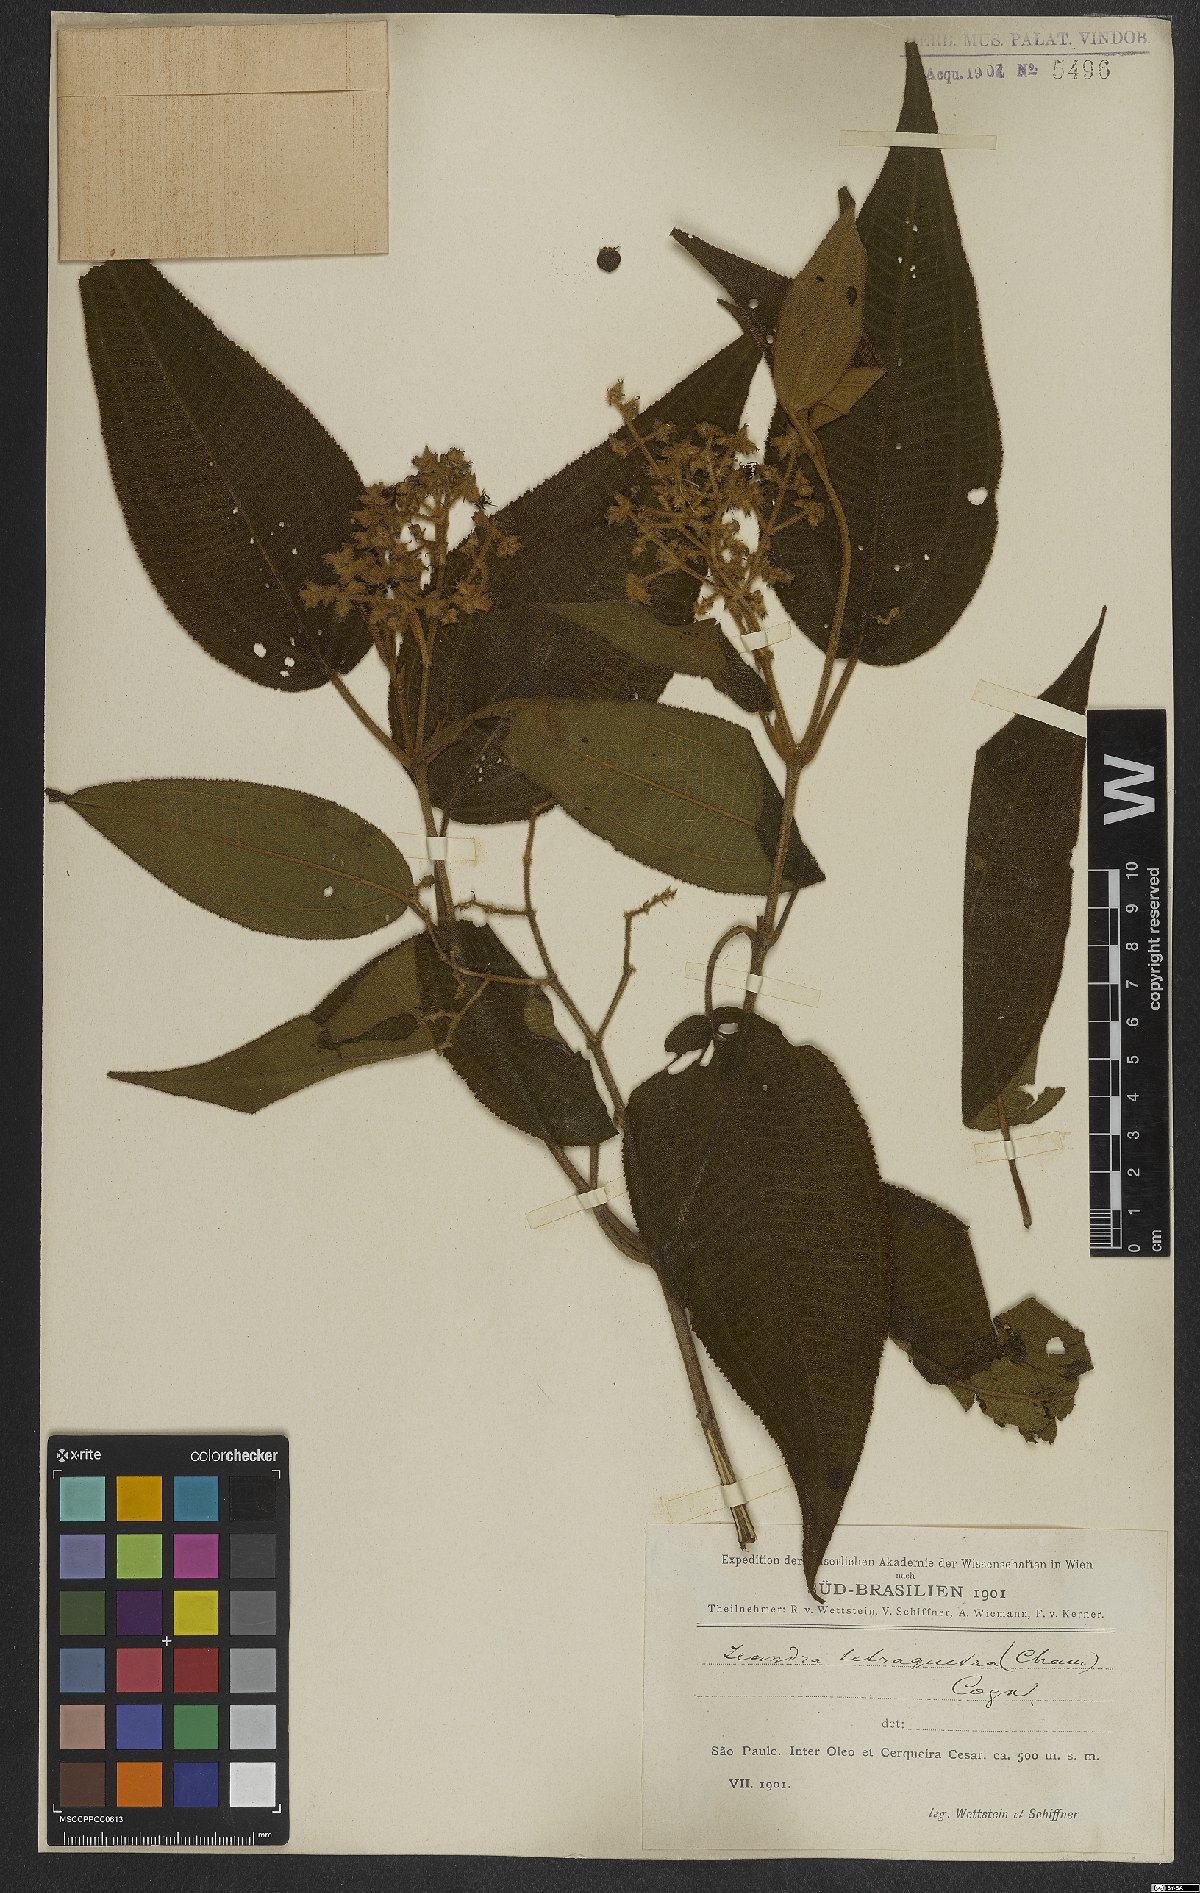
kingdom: Plantae
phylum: Tracheophyta
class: Magnoliopsida
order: Myrtales
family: Melastomataceae
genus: Miconia
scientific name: Miconia tetraquetra
